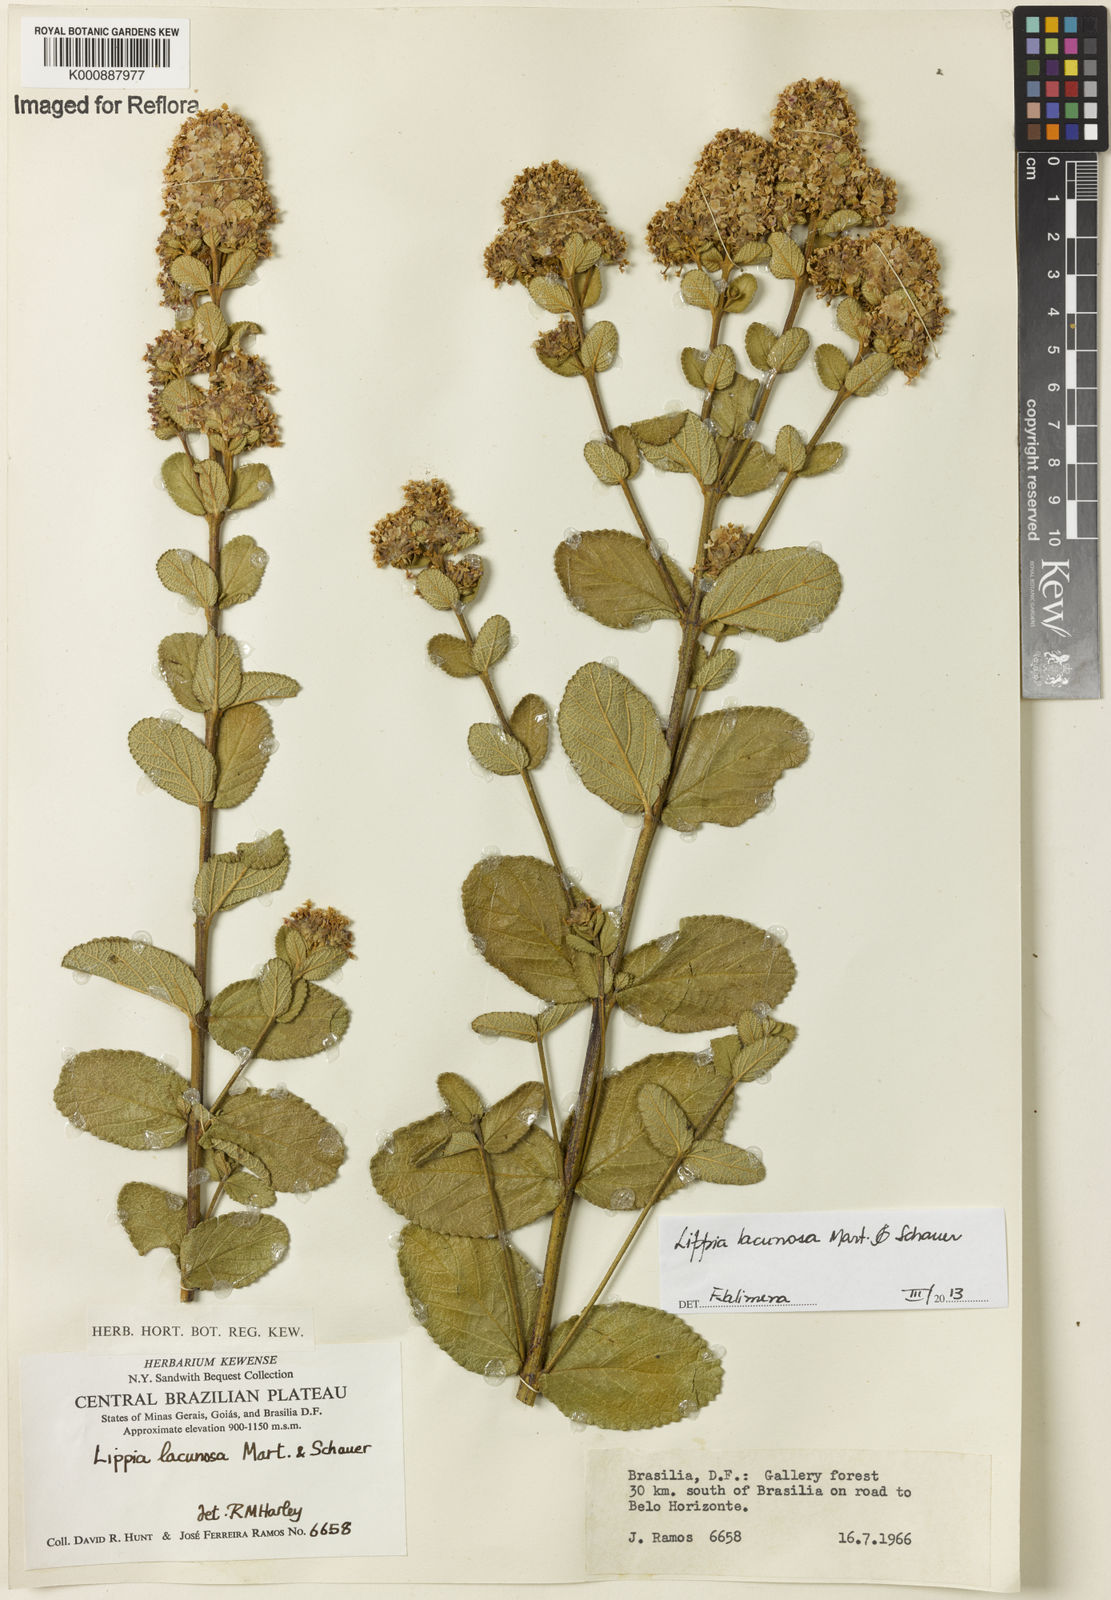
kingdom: Plantae
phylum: Tracheophyta
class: Magnoliopsida
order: Lamiales
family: Verbenaceae
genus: Lippia
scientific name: Lippia lacunosa
